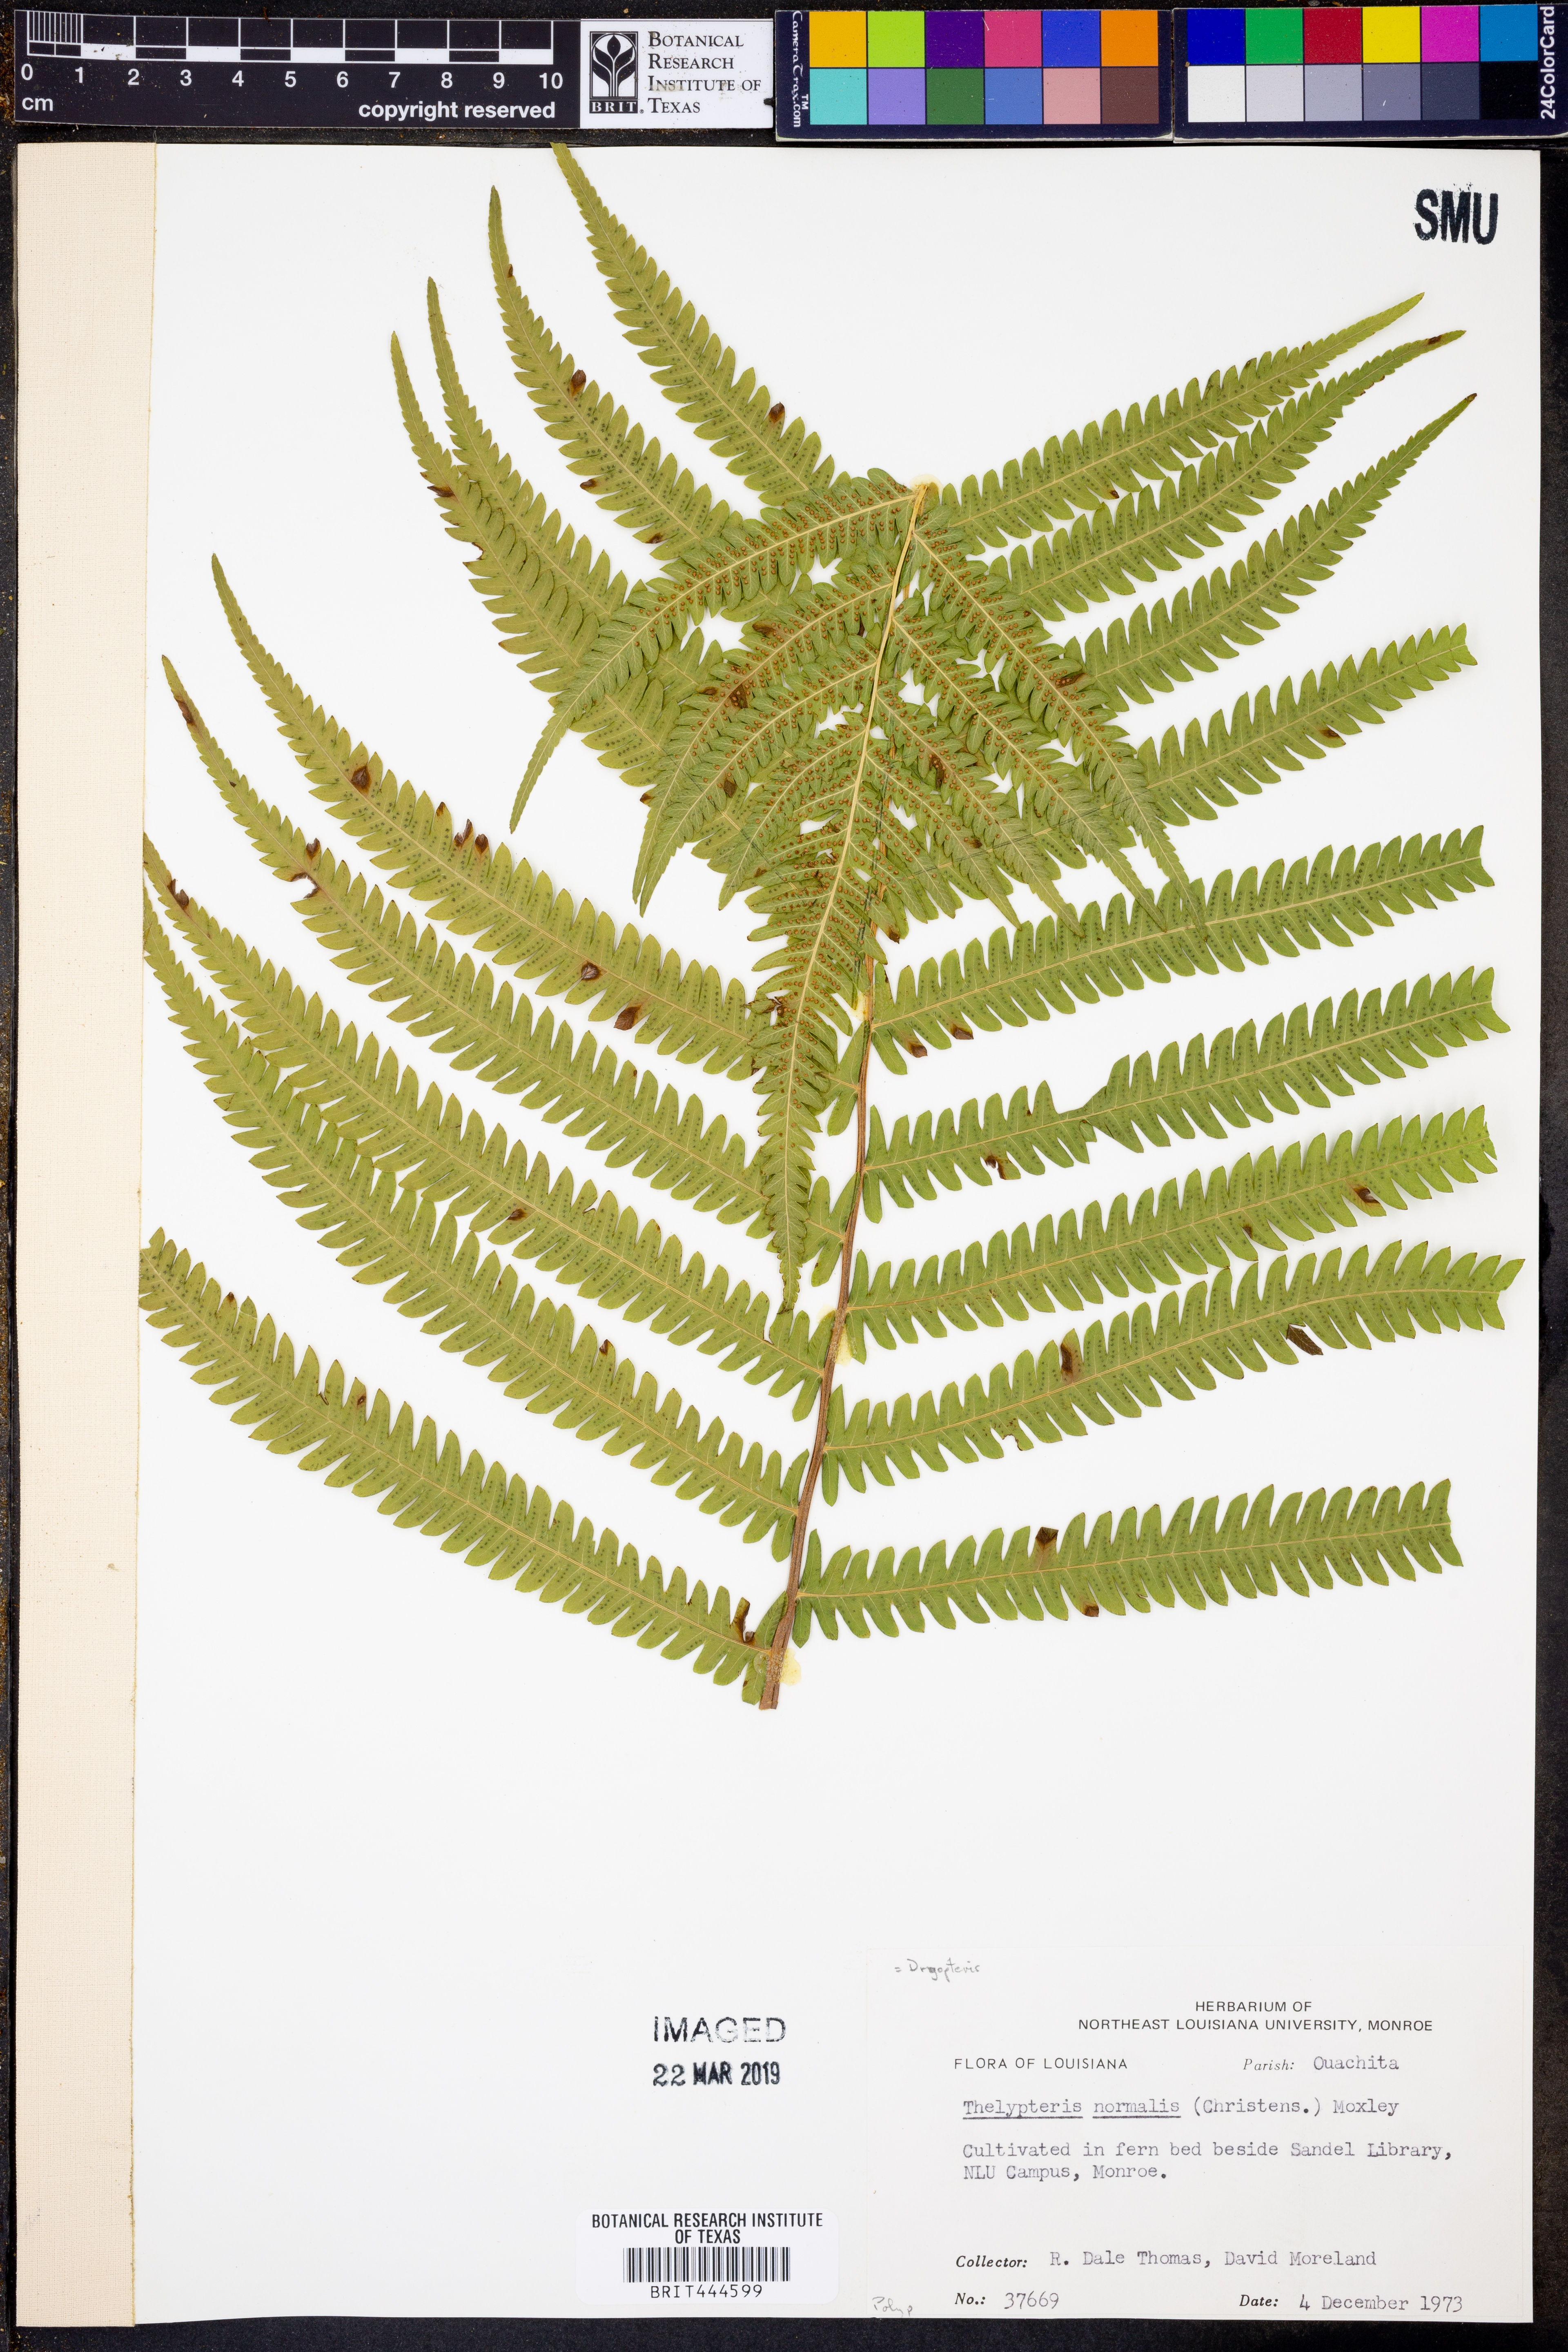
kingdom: Plantae
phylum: Tracheophyta
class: Polypodiopsida
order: Polypodiales
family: Thelypteridaceae
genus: Pelazoneuron
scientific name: Pelazoneuron kunthii
